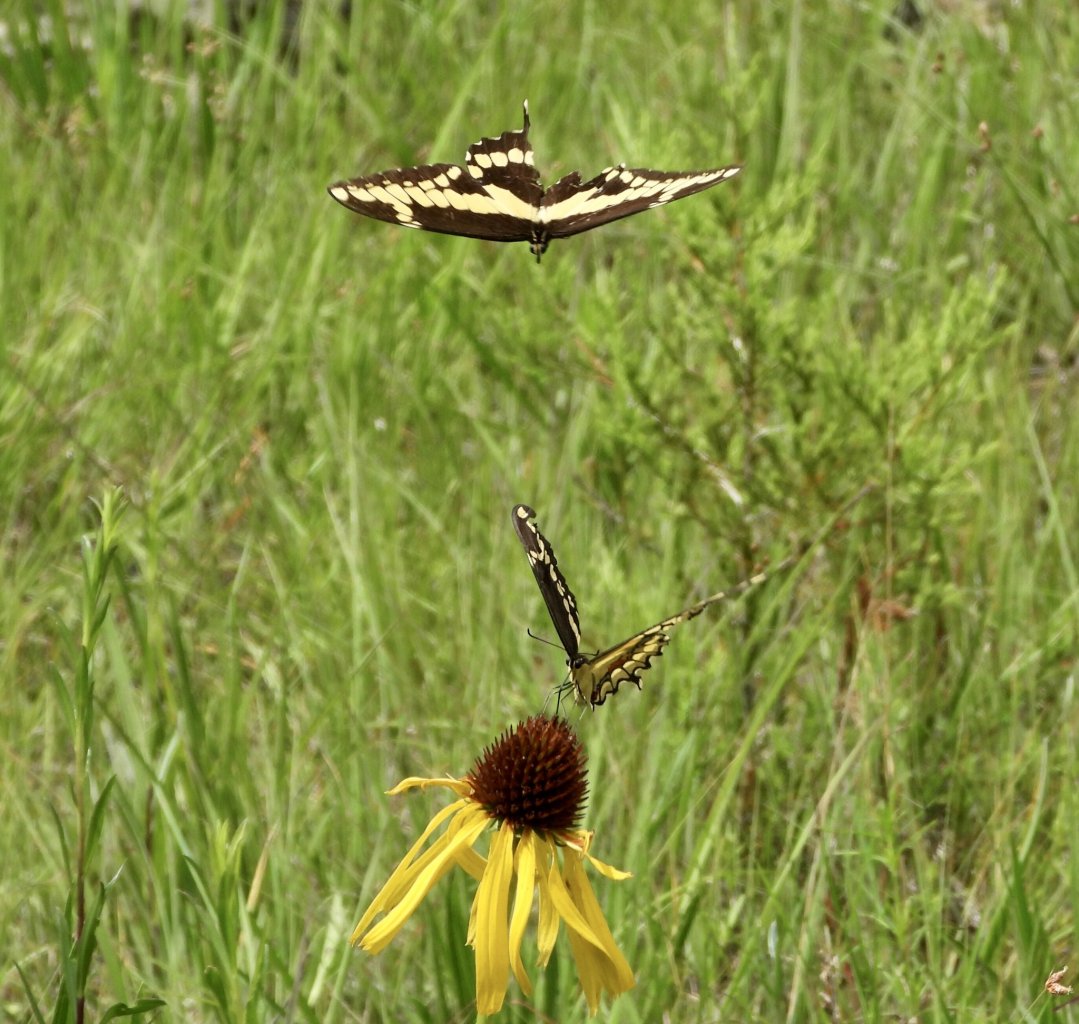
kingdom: Animalia
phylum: Arthropoda
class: Insecta
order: Lepidoptera
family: Papilionidae
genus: Papilio
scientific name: Papilio cresphontes
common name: Eastern Giant Swallowtail
